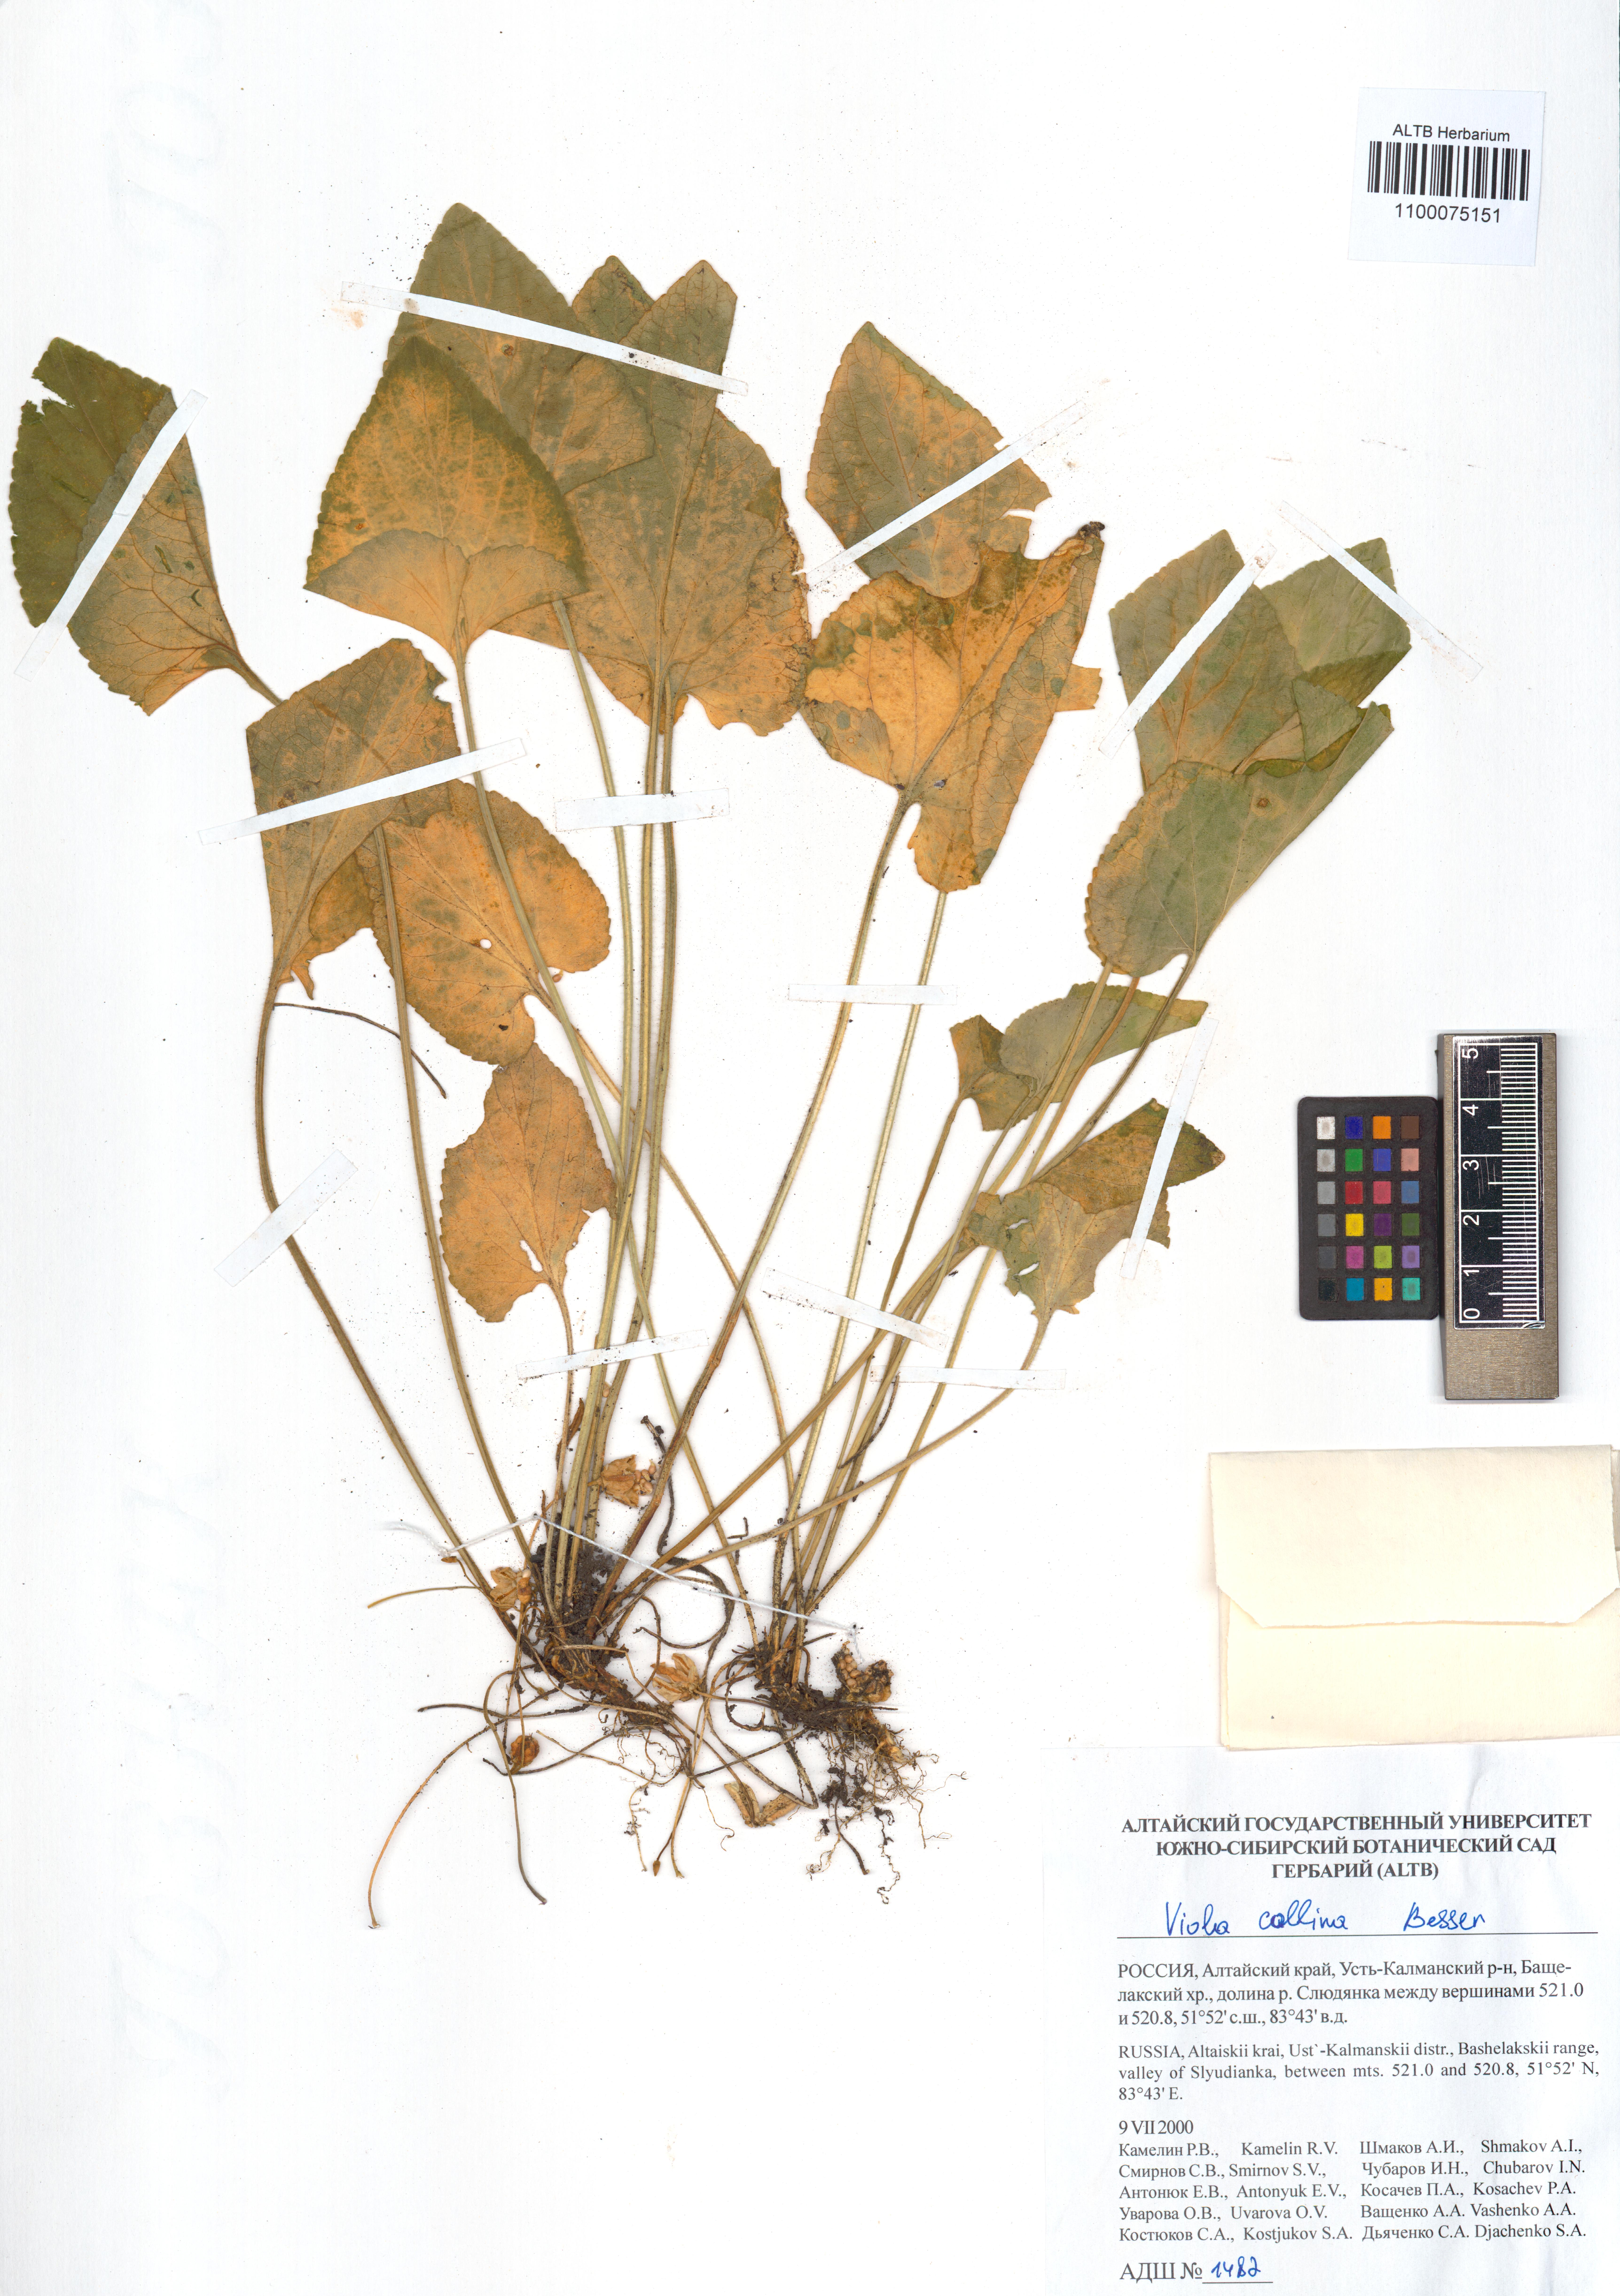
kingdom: Plantae
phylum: Tracheophyta
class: Magnoliopsida
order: Malpighiales
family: Violaceae
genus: Viola
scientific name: Viola collina
